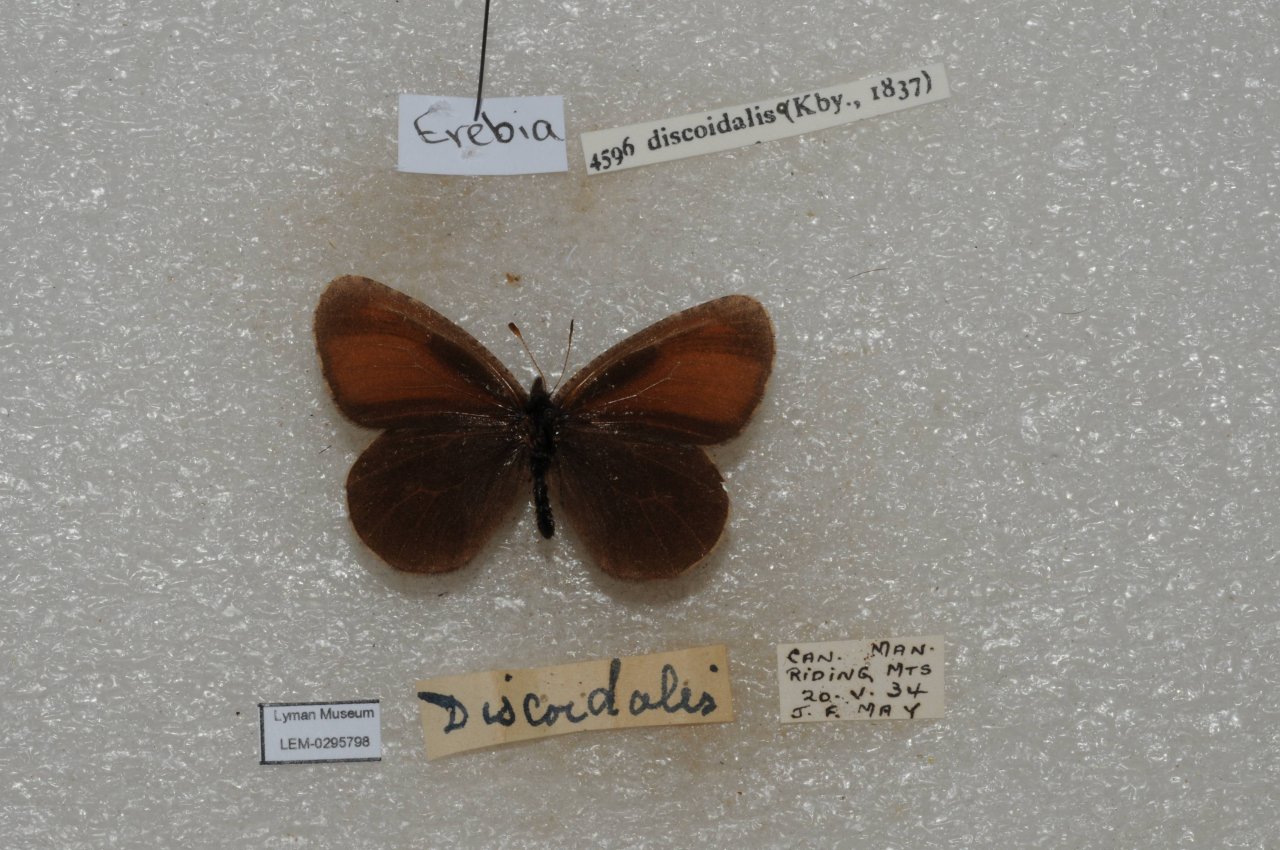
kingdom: Animalia
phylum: Arthropoda
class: Insecta
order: Lepidoptera
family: Nymphalidae
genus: Erebia
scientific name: Erebia discoidalis
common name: Red-disked Alpine
